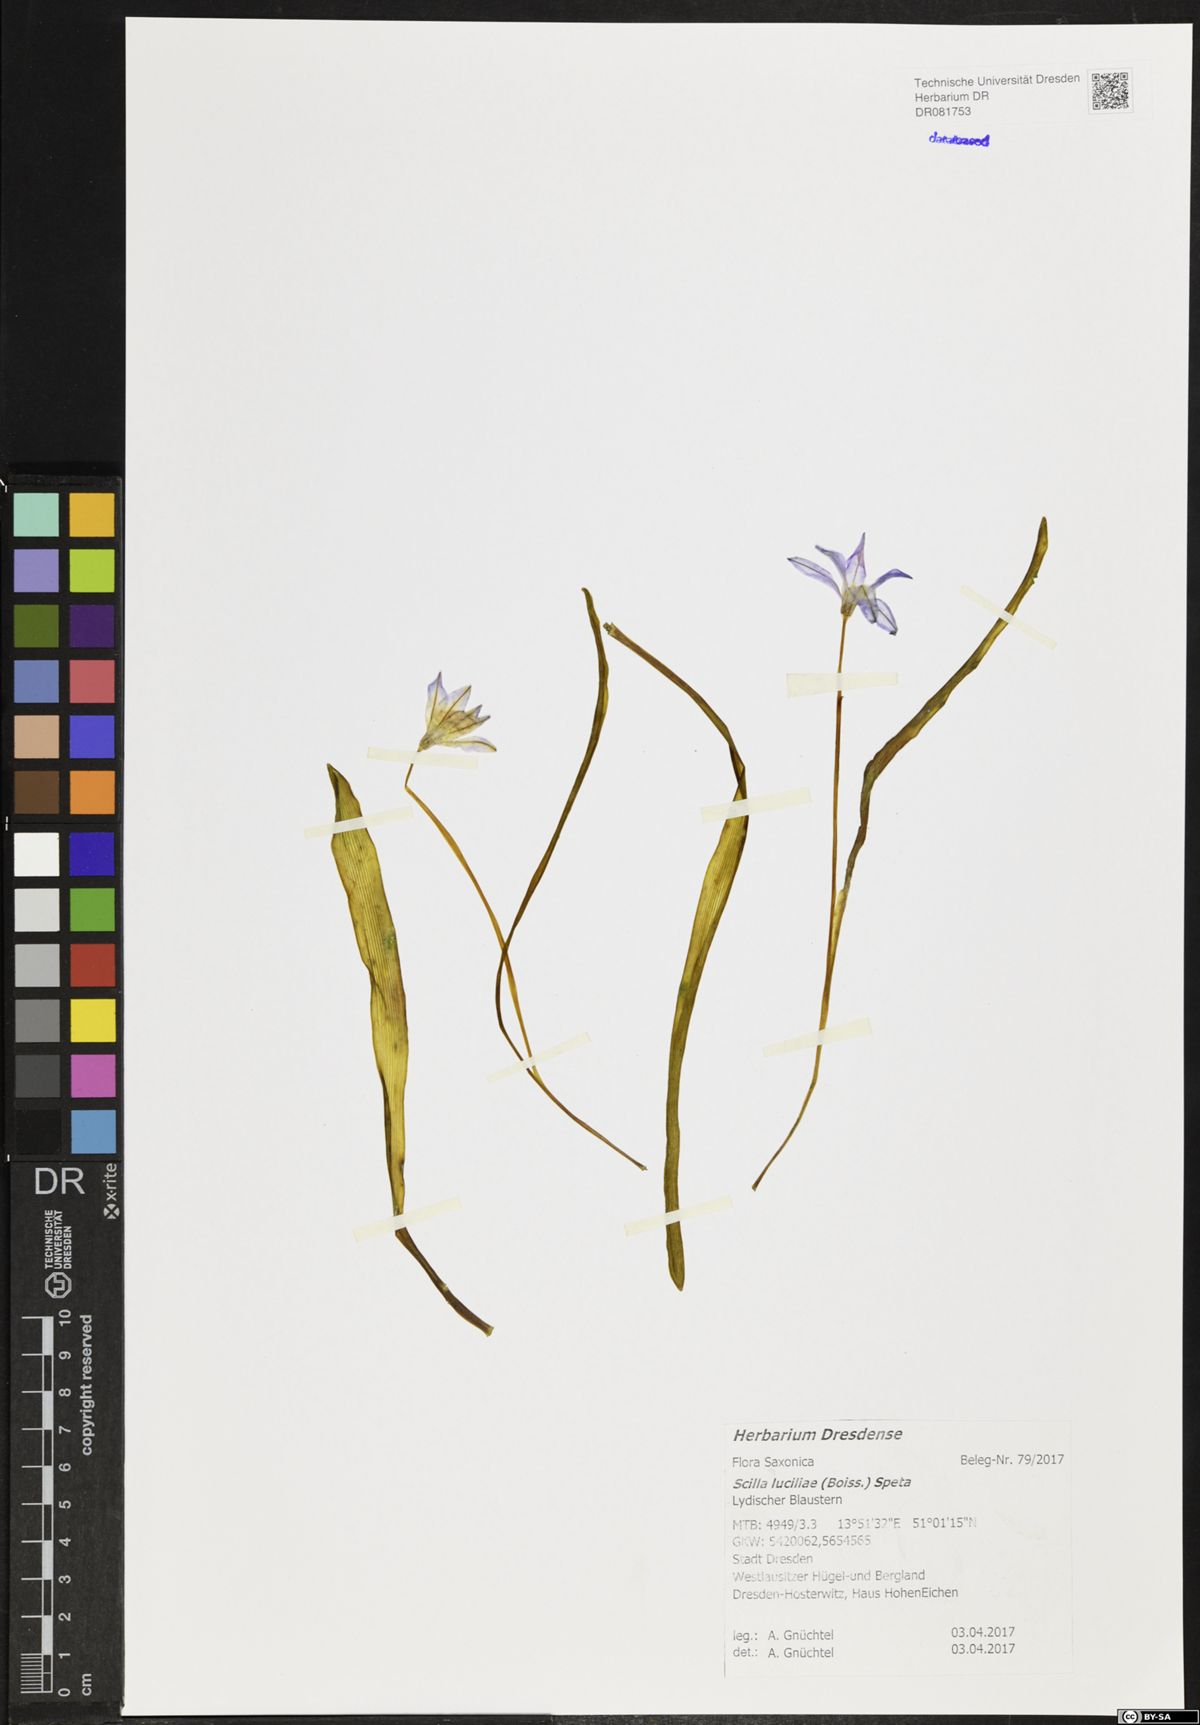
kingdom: Plantae
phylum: Tracheophyta
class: Liliopsida
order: Asparagales
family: Asparagaceae
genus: Scilla
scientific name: Scilla luciliae
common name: Boissier's glory-of-the-snow
